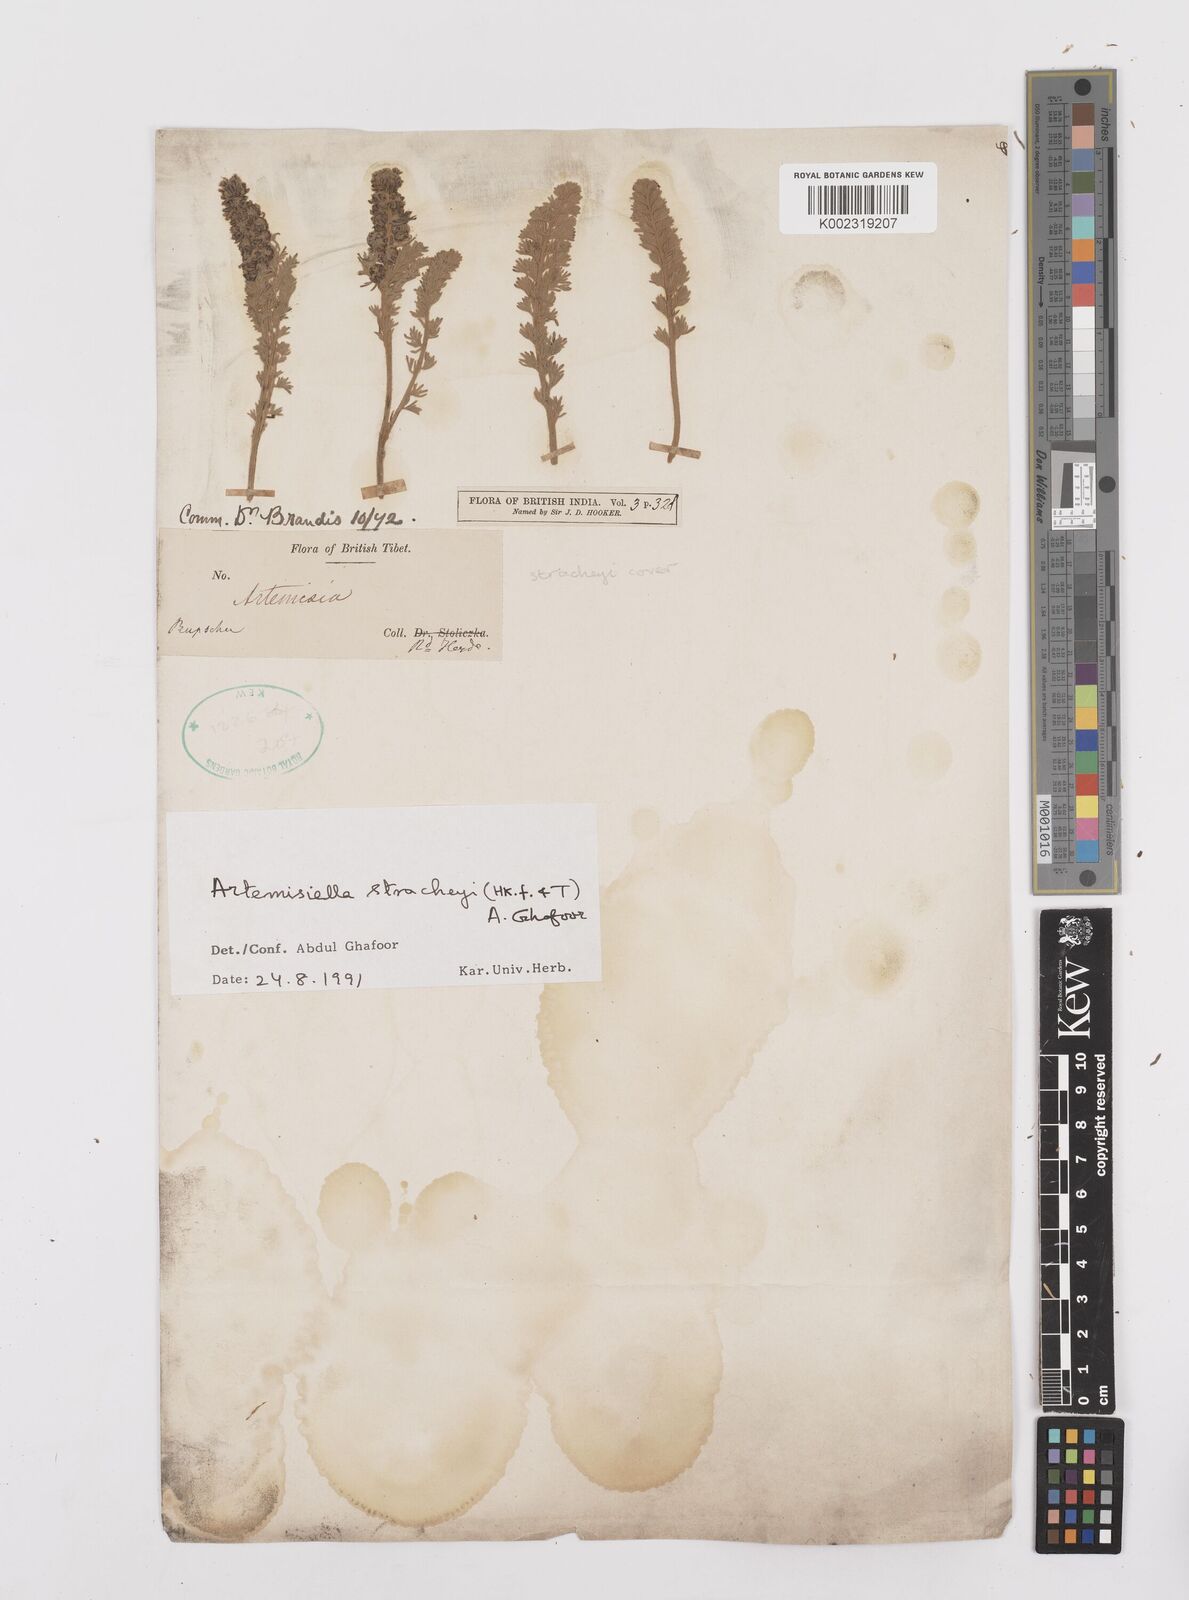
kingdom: Plantae
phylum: Tracheophyta
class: Magnoliopsida
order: Asterales
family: Asteraceae
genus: Artemisiella
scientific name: Artemisiella stracheyi
